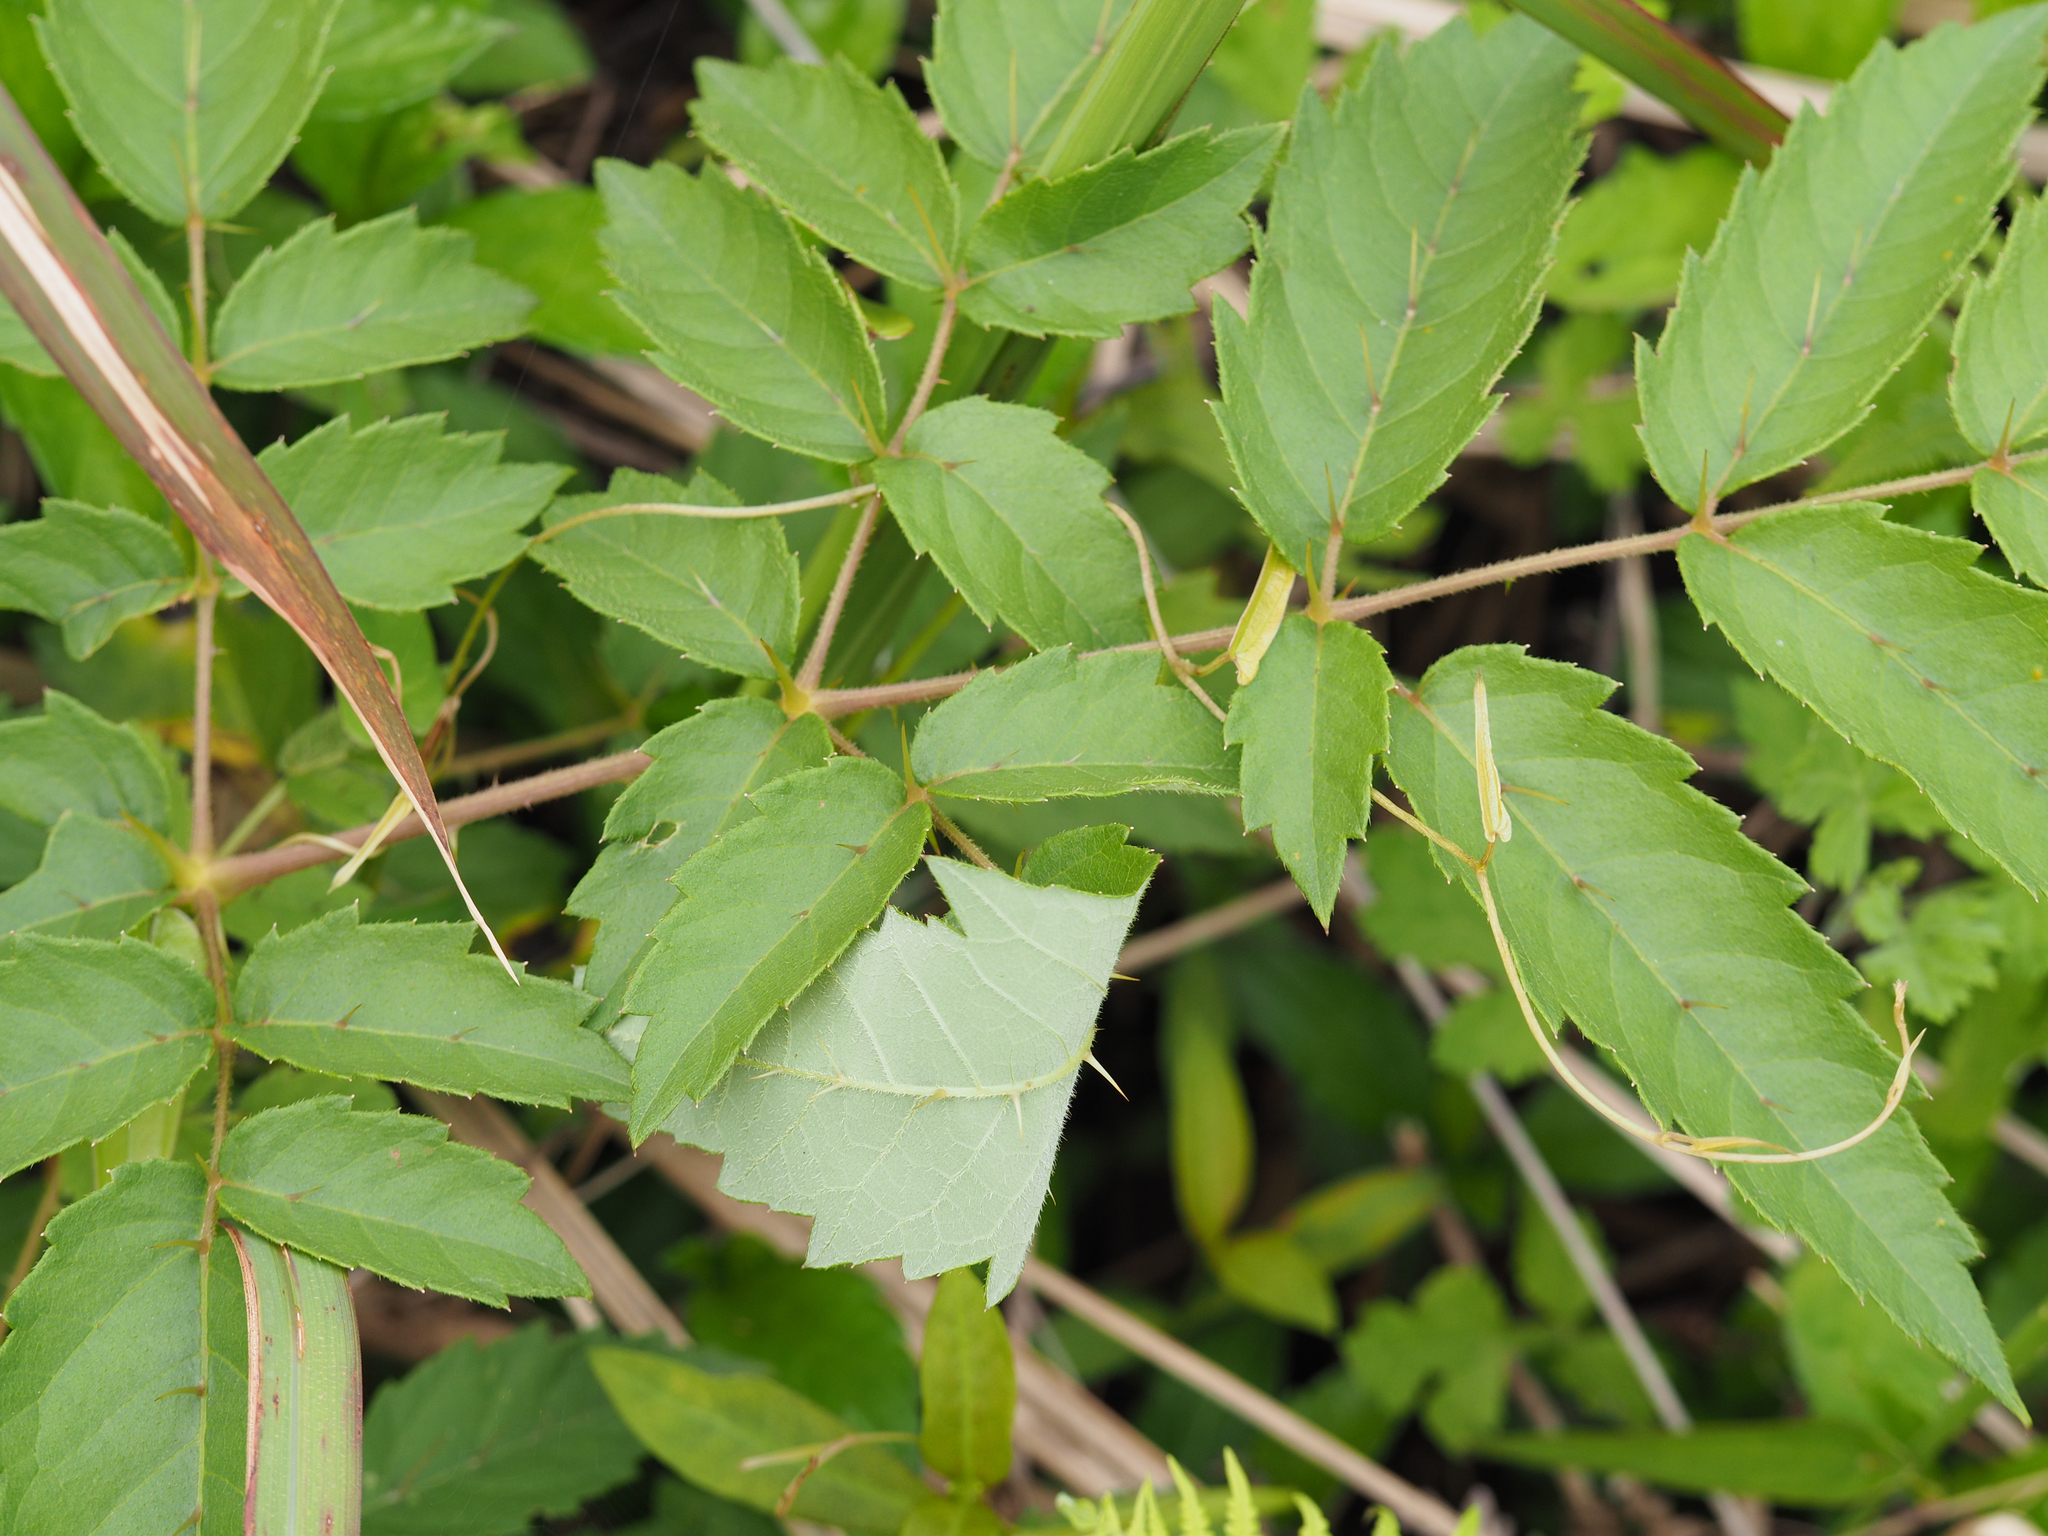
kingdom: Plantae
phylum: Tracheophyta
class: Magnoliopsida
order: Apiales
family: Araliaceae
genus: Aralia
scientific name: Aralia decaisneana
